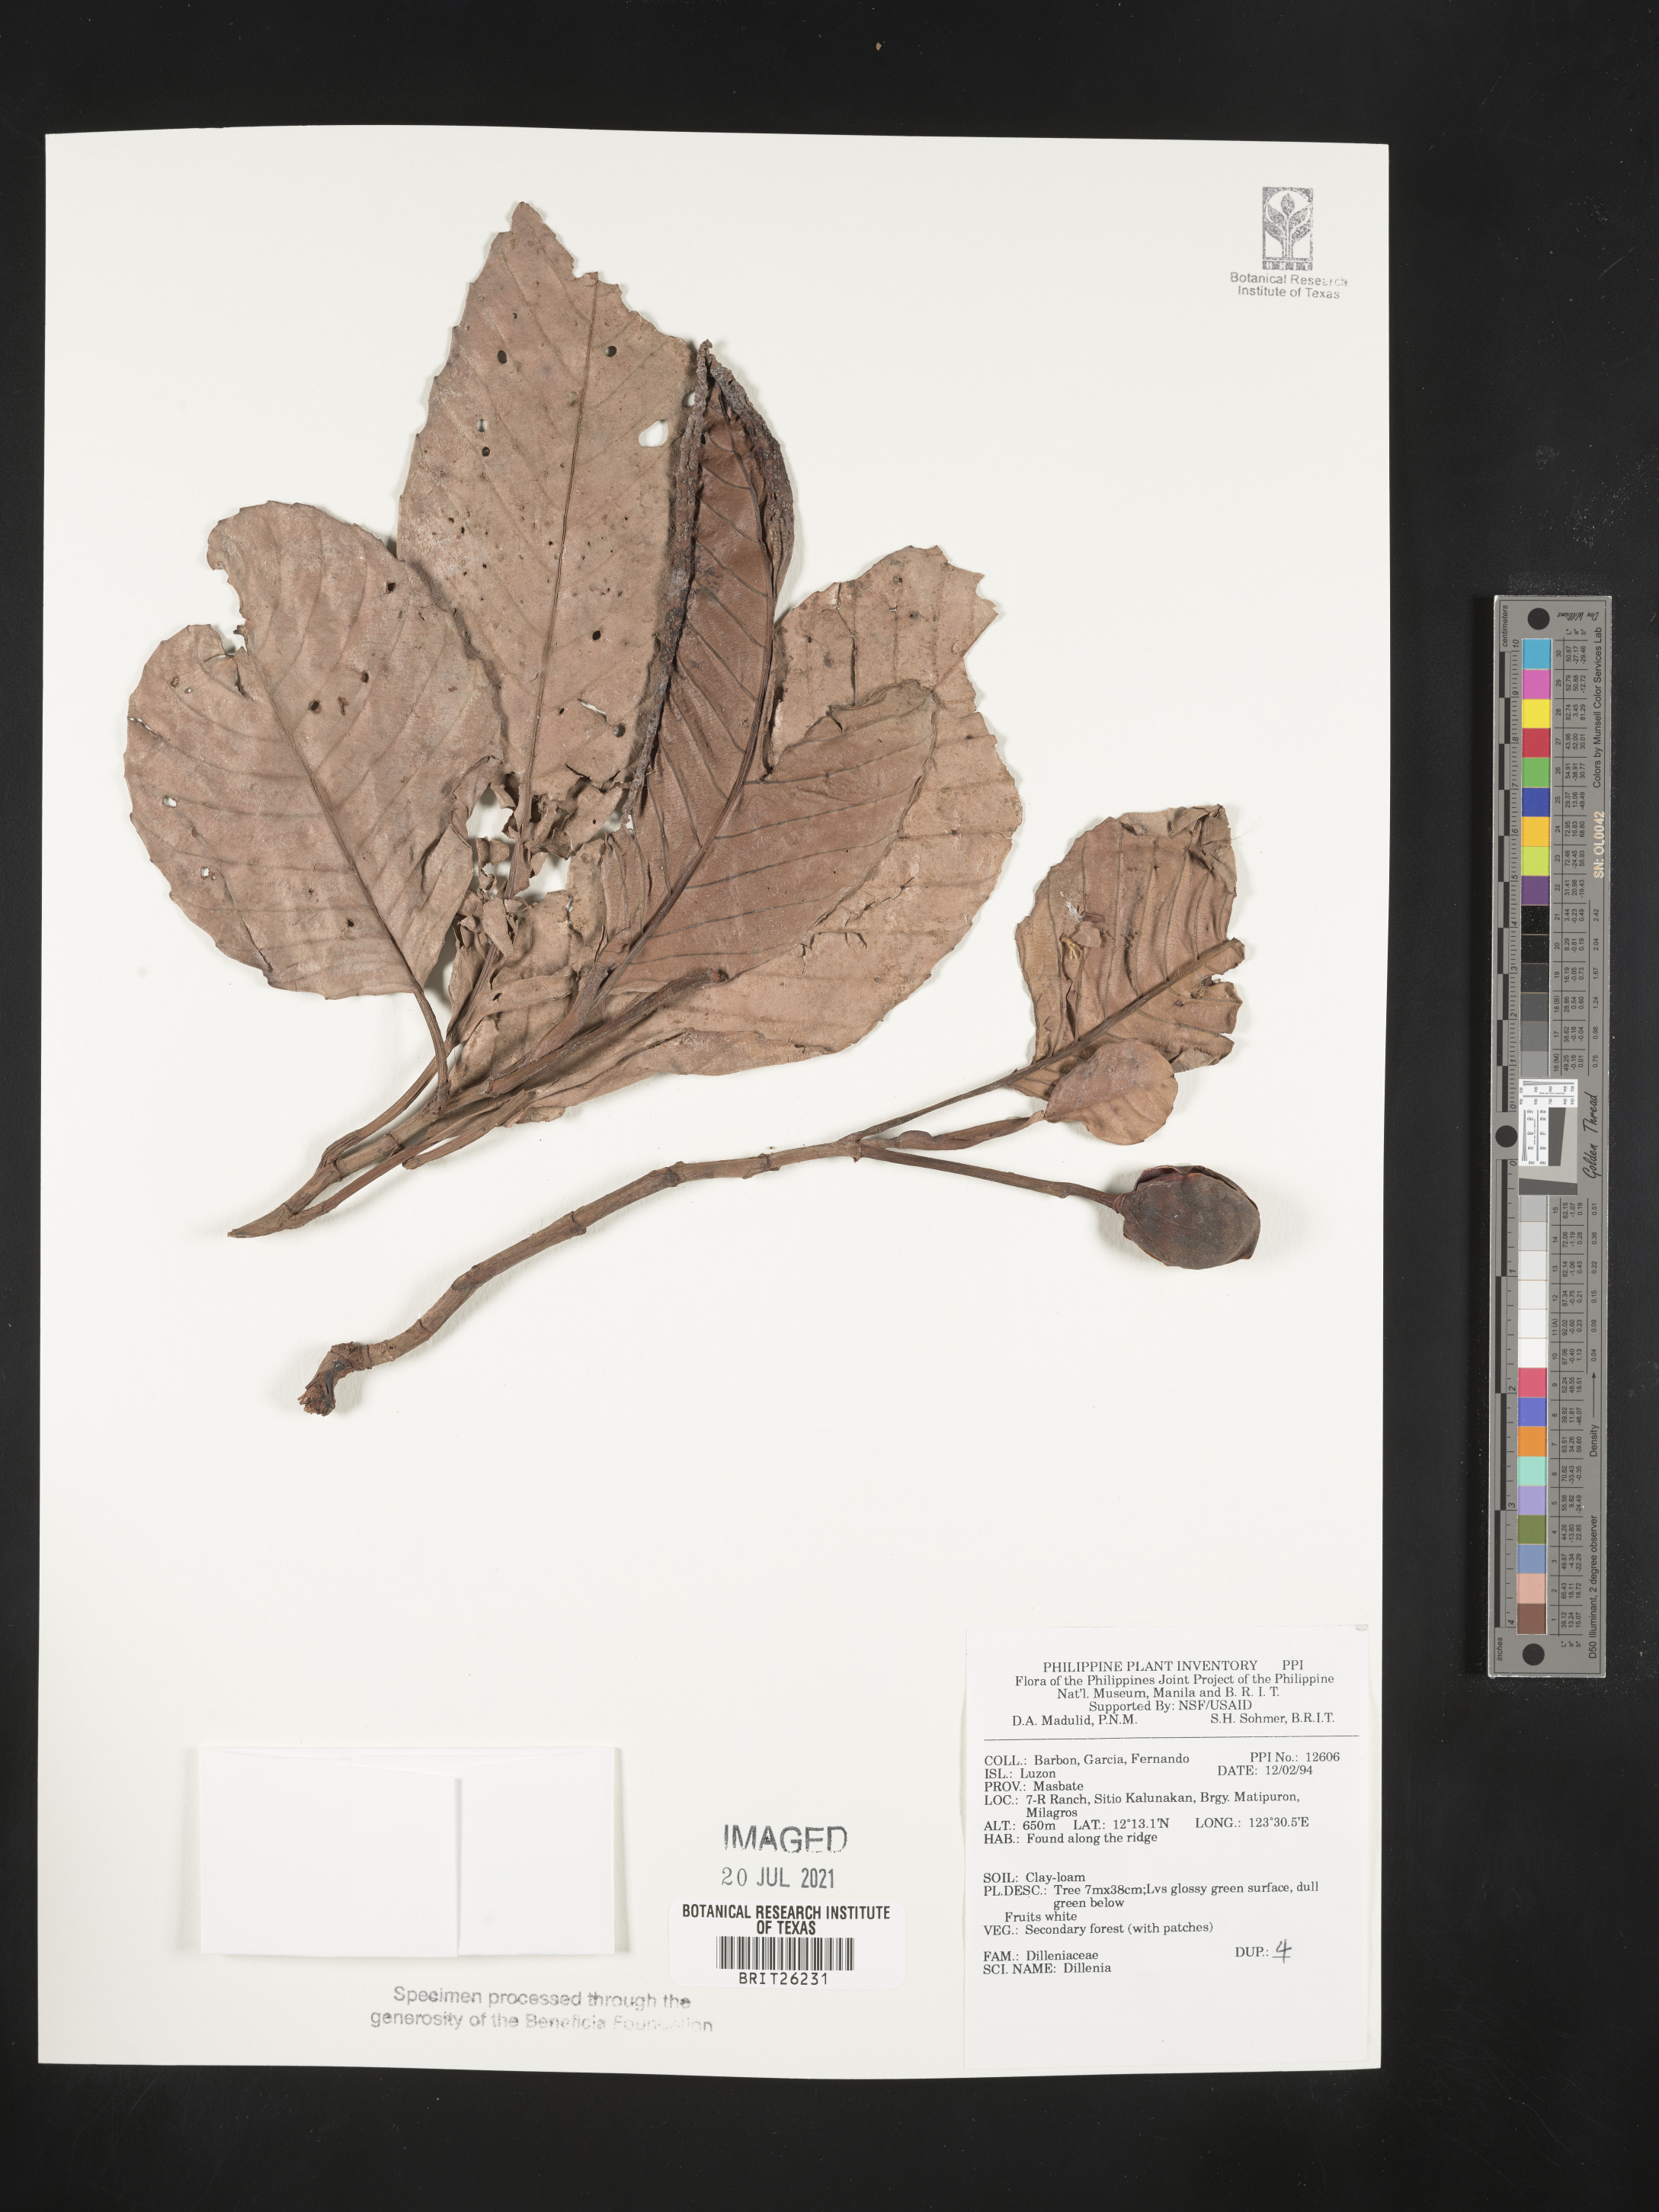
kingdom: Plantae
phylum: Tracheophyta
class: Magnoliopsida
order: Dilleniales
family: Dilleniaceae
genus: Dillenia
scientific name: Dillenia
